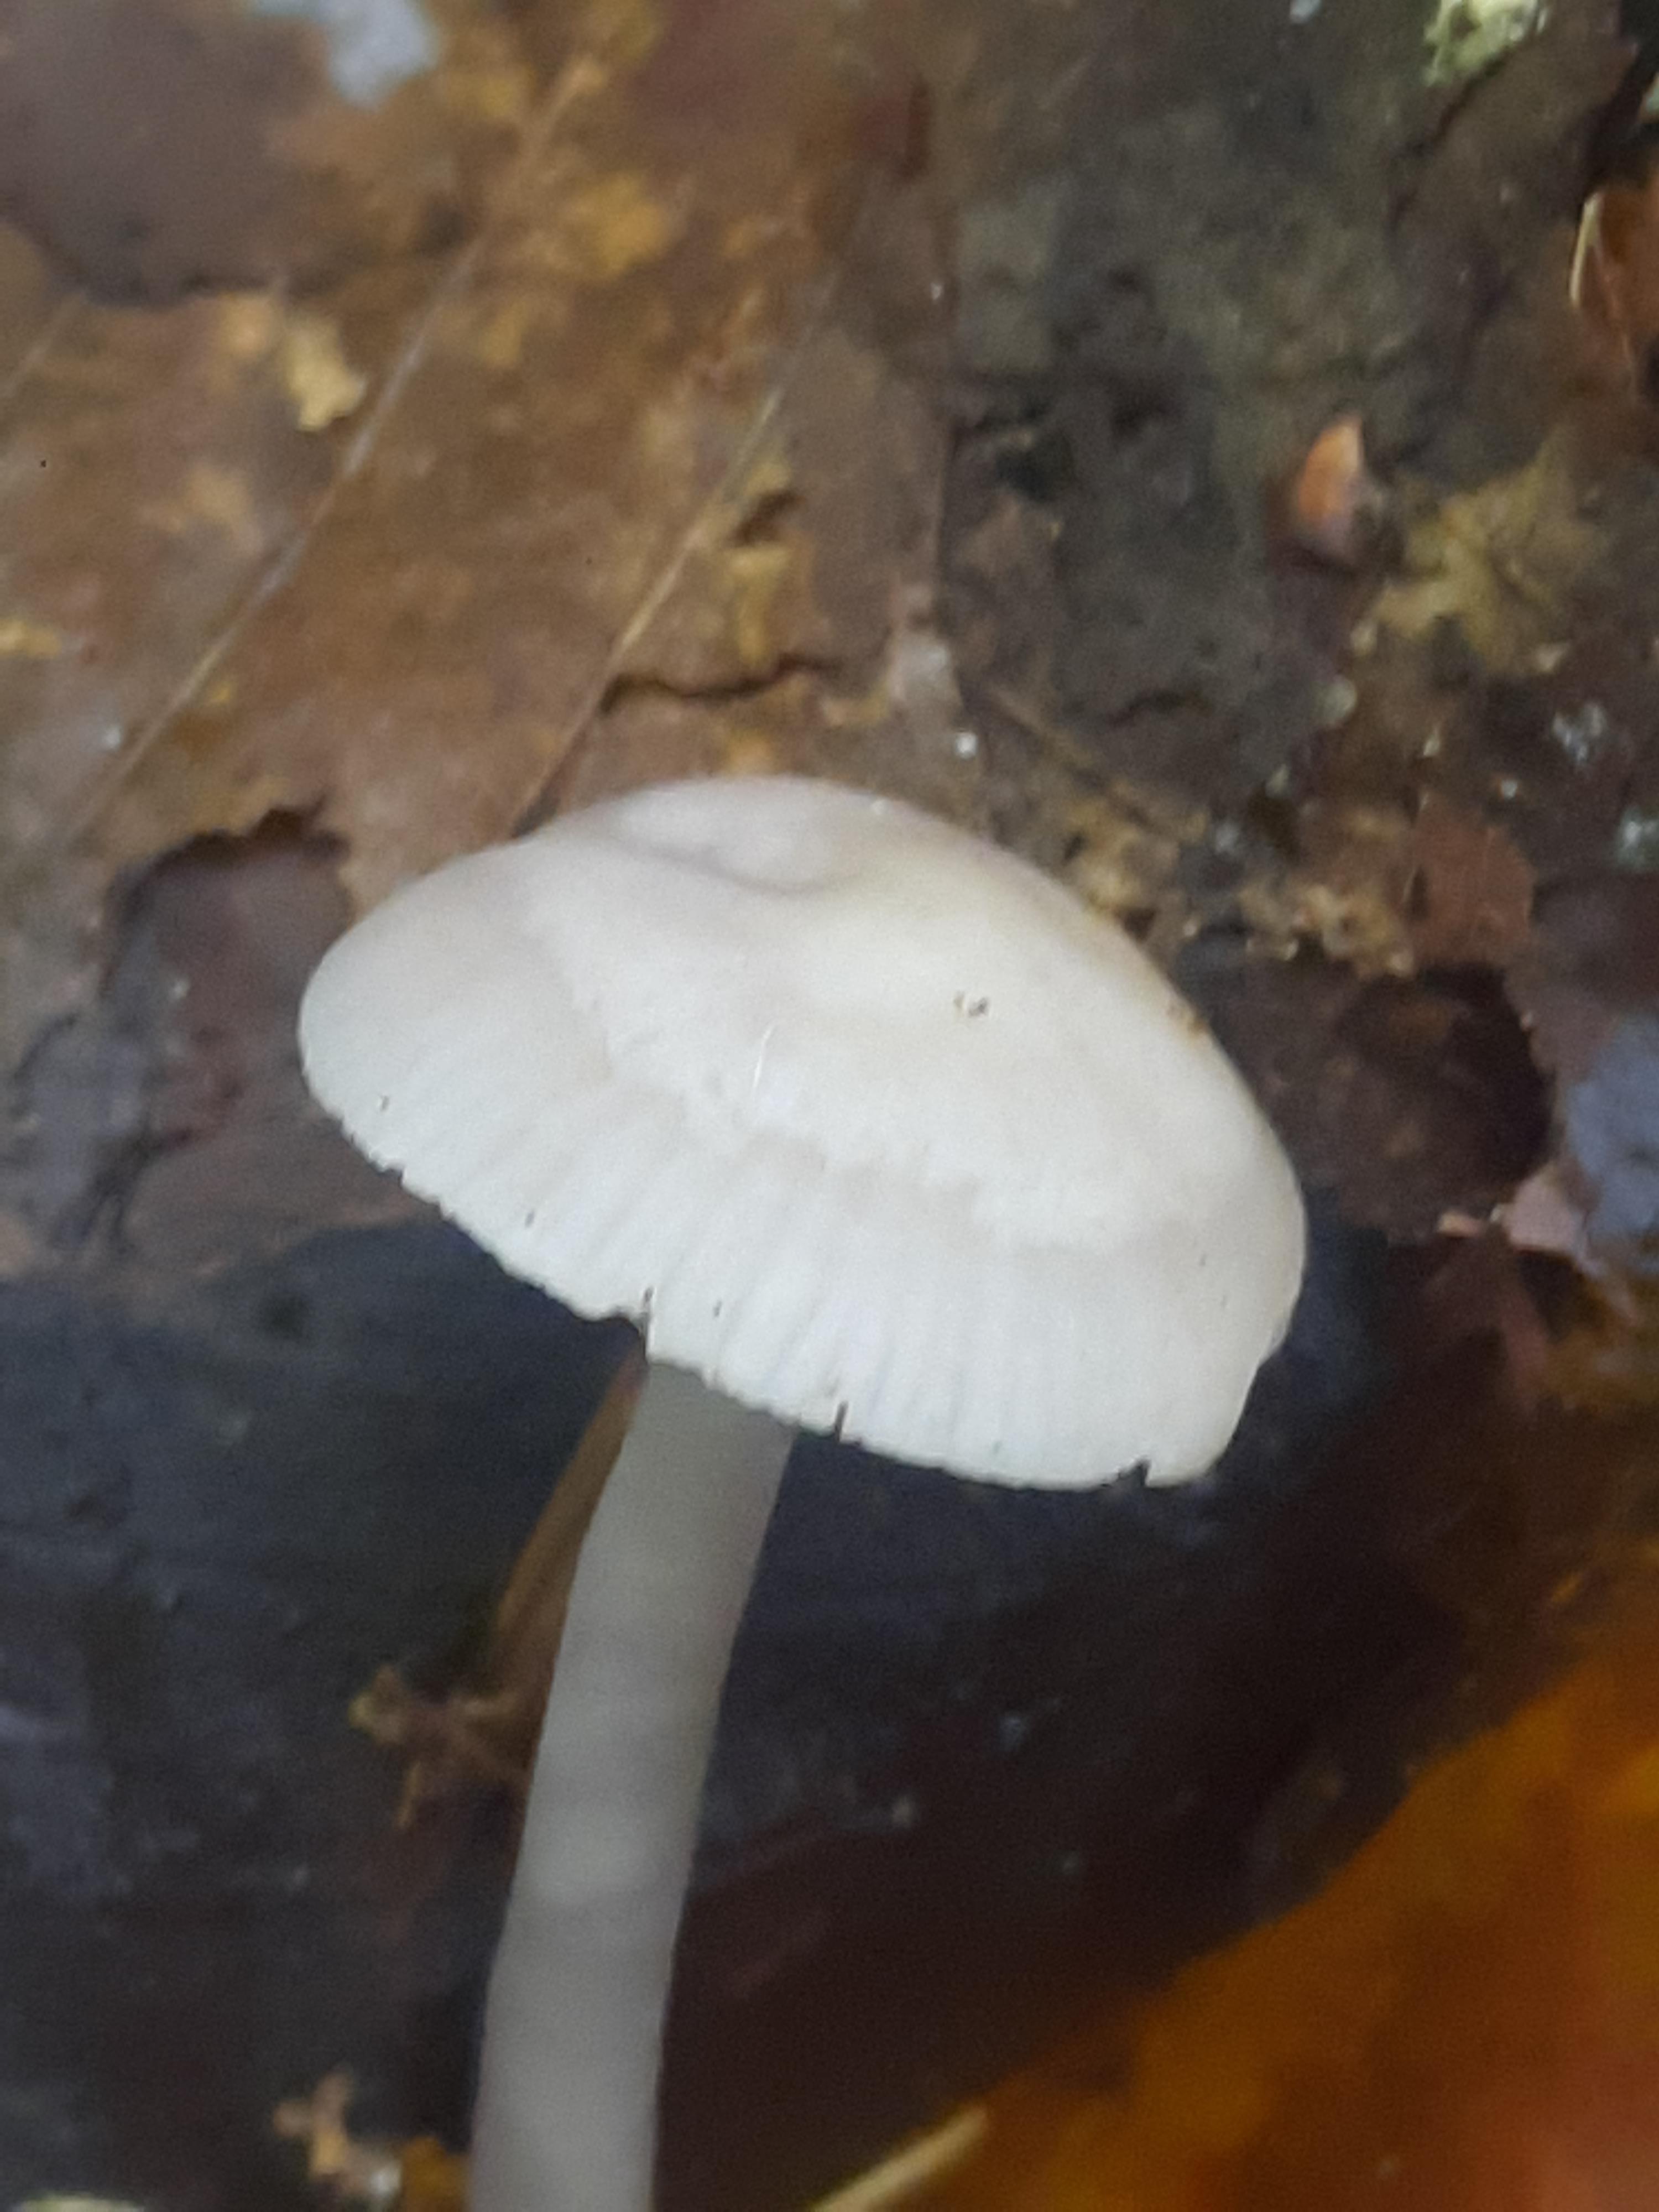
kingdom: Fungi
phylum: Basidiomycota
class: Agaricomycetes
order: Agaricales
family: Mycenaceae
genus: Mycena
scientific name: Mycena
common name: huesvamp
